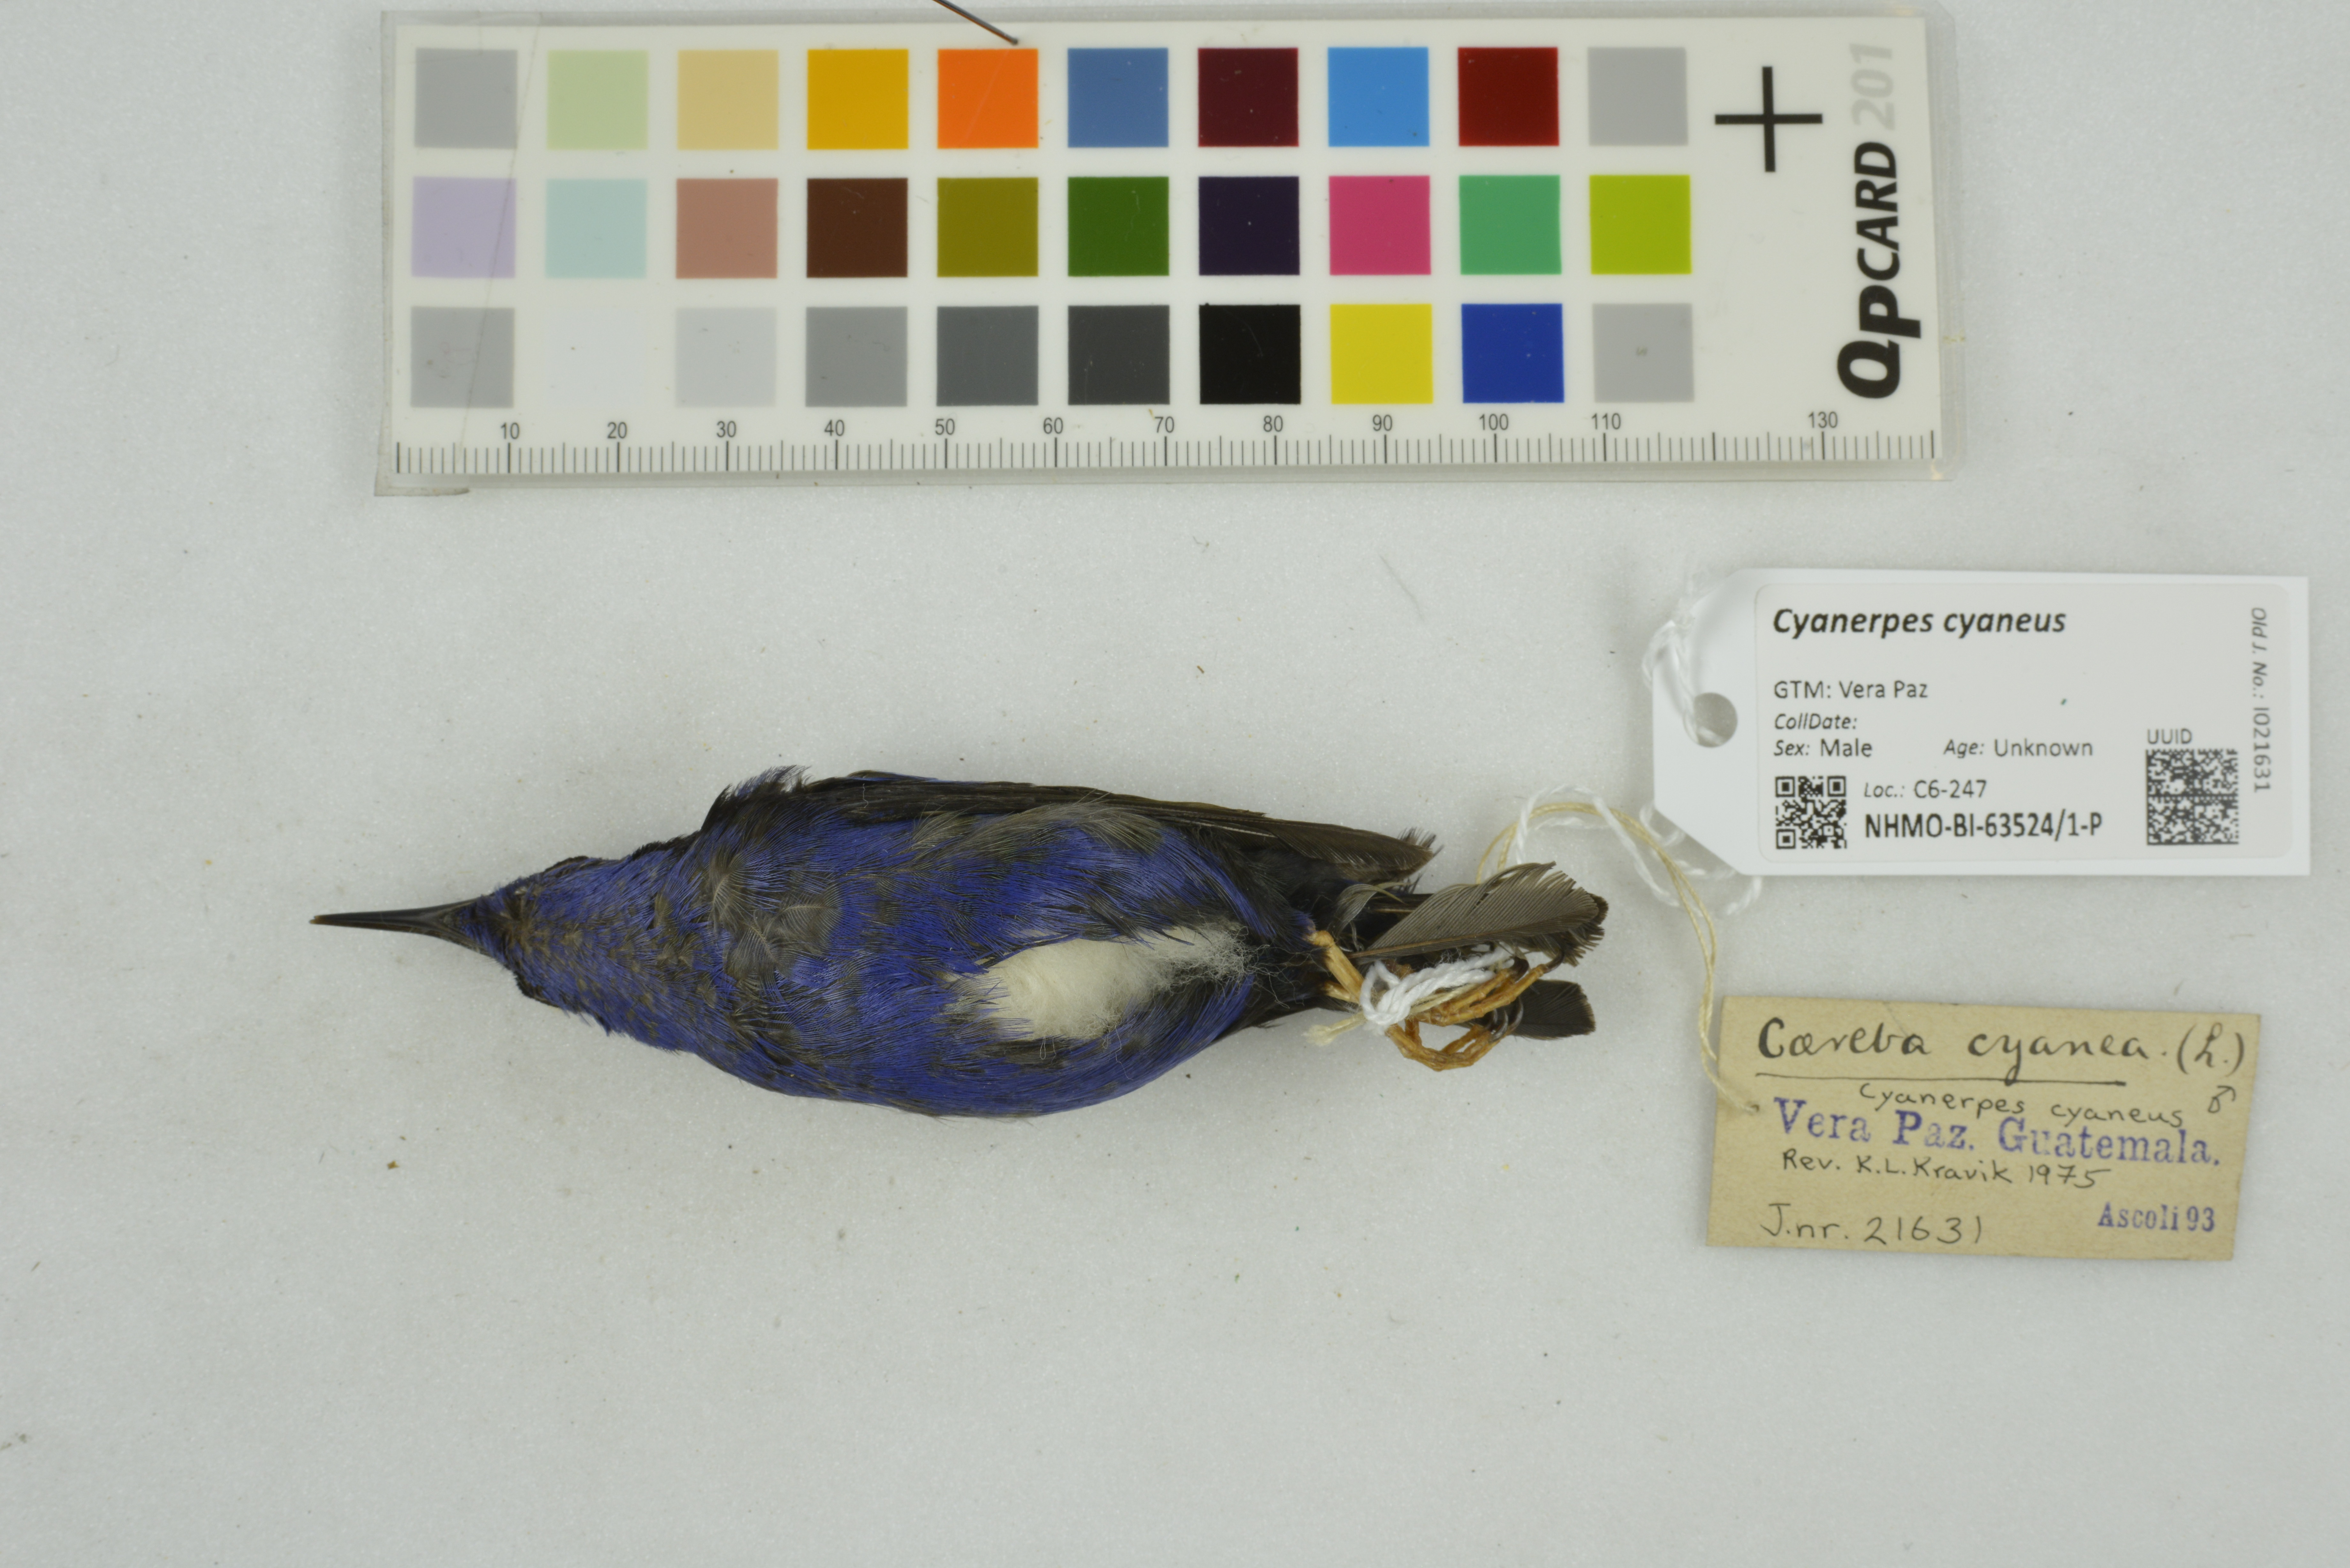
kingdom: Animalia
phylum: Chordata
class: Aves
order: Passeriformes
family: Thraupidae
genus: Cyanerpes
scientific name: Cyanerpes cyaneus
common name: Red-legged honeycreeper
